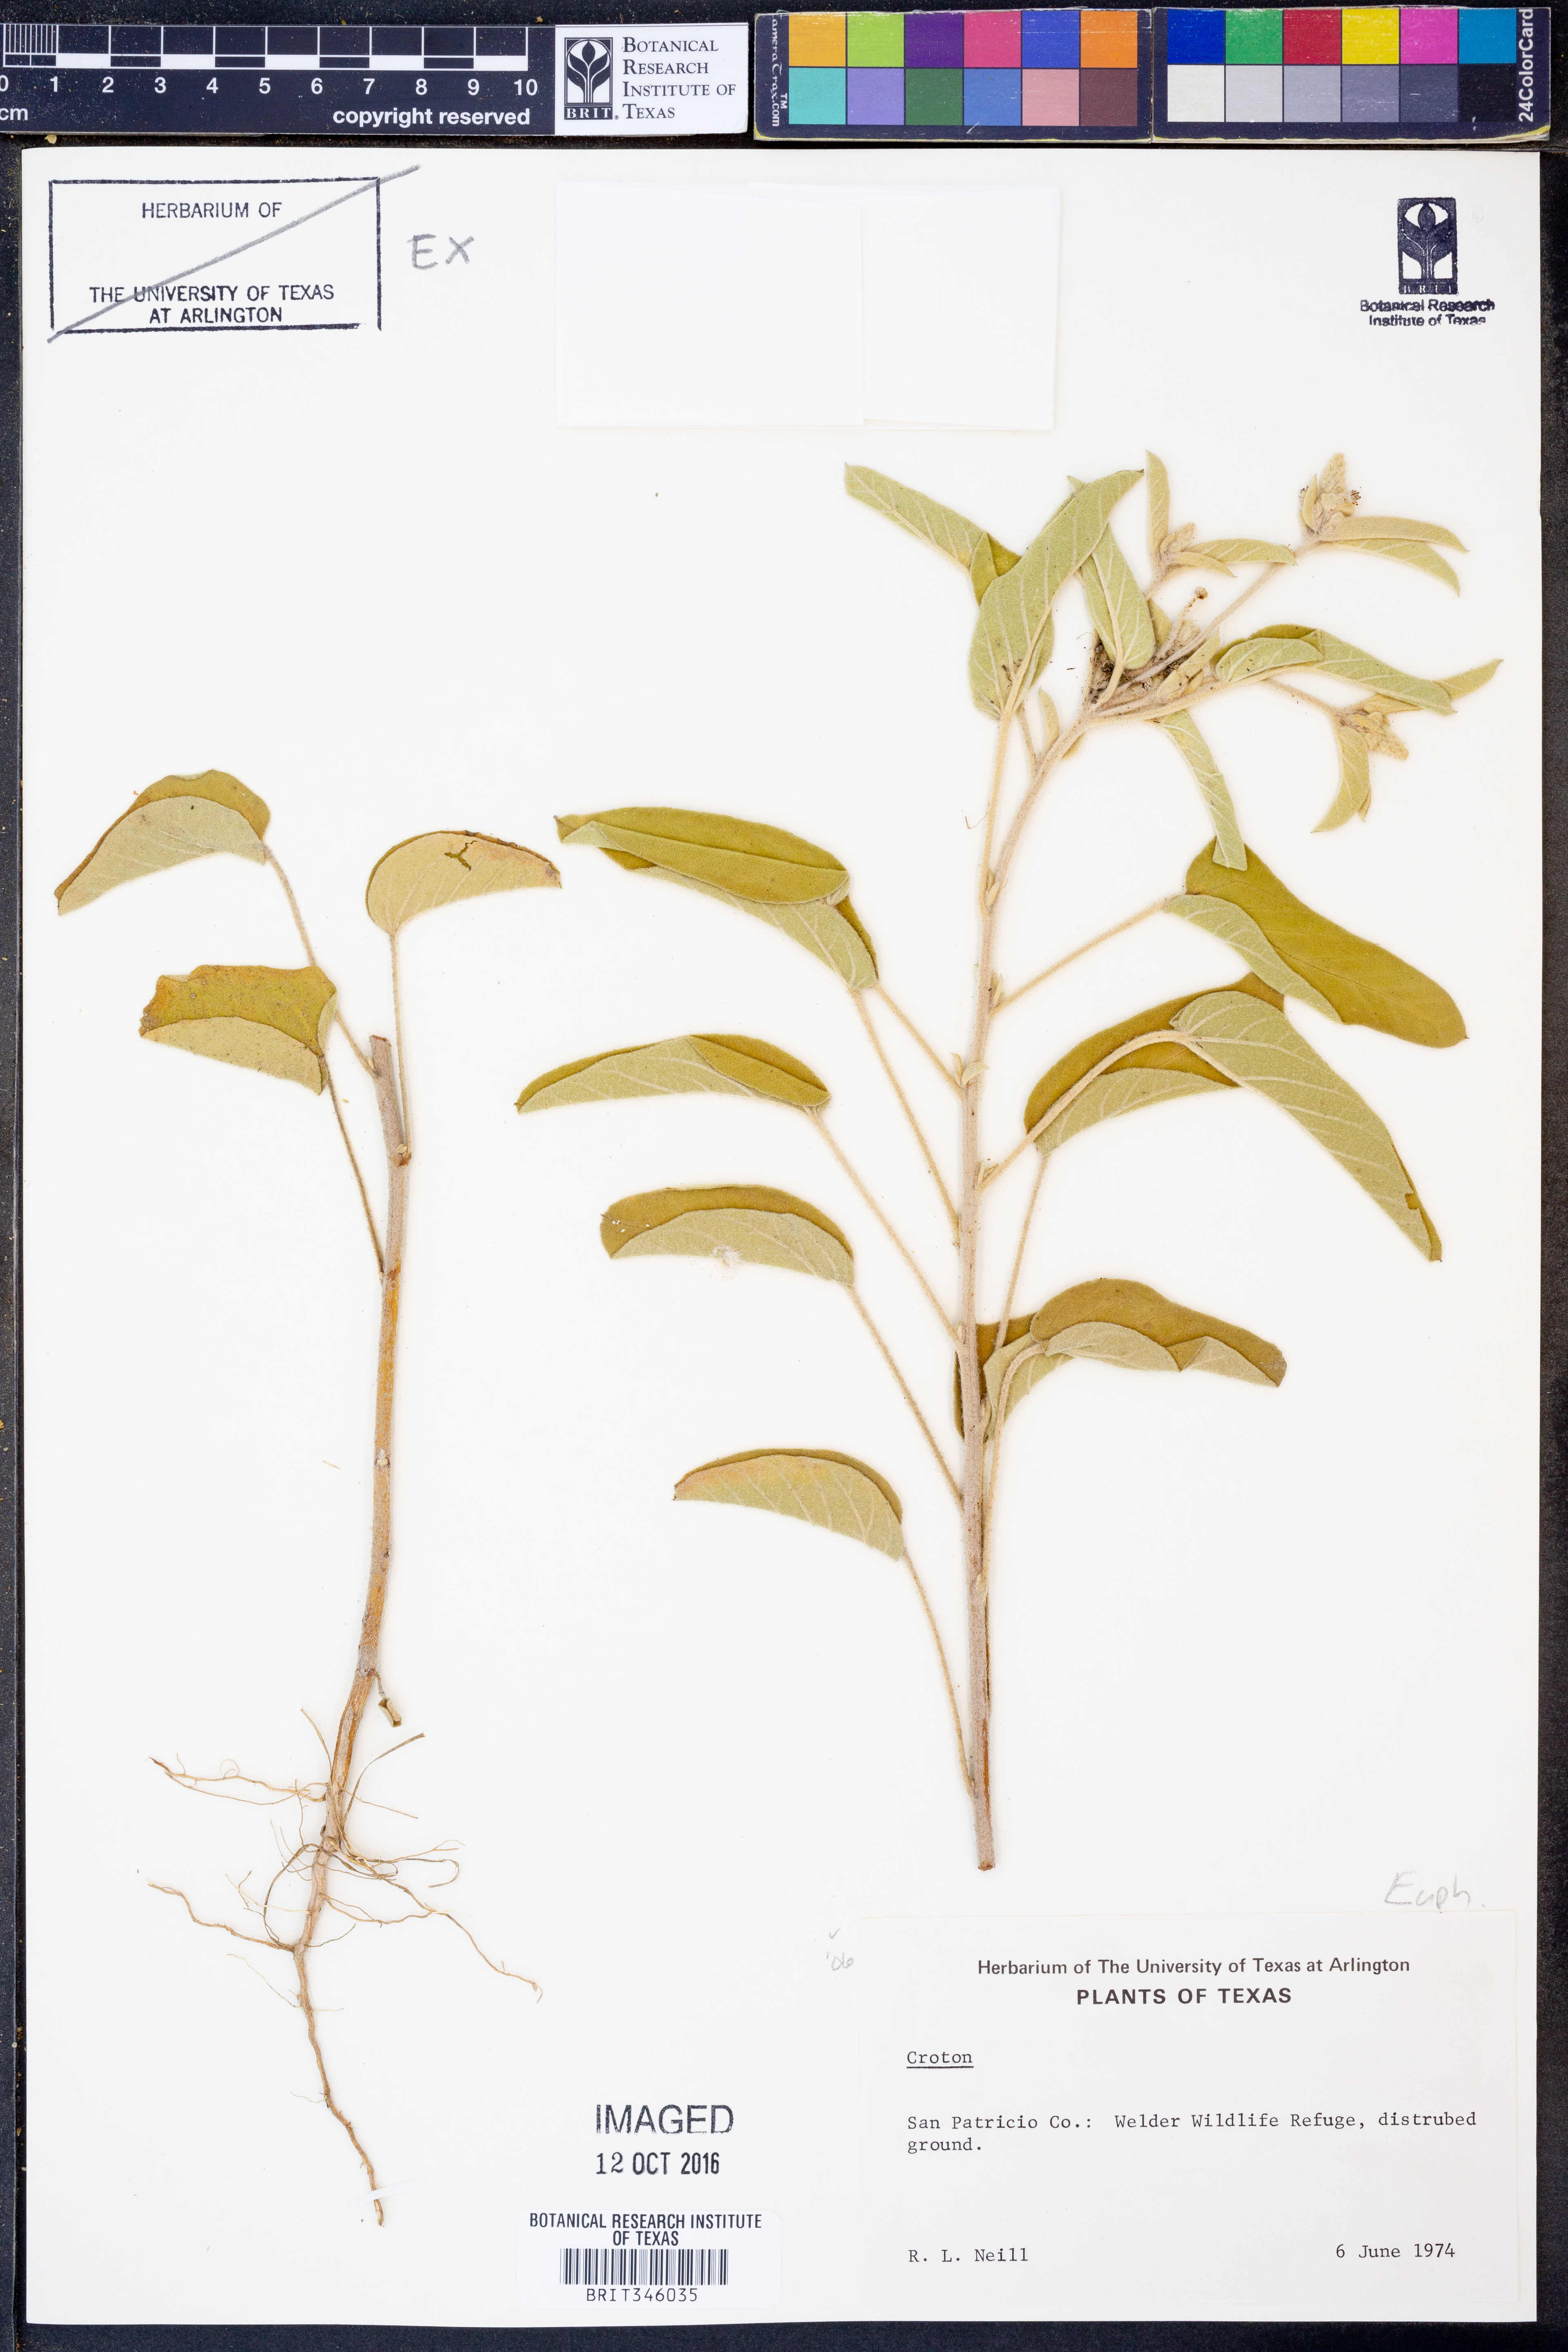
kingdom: Plantae
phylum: Tracheophyta
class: Magnoliopsida
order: Malpighiales
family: Euphorbiaceae
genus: Croton
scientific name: Croton
